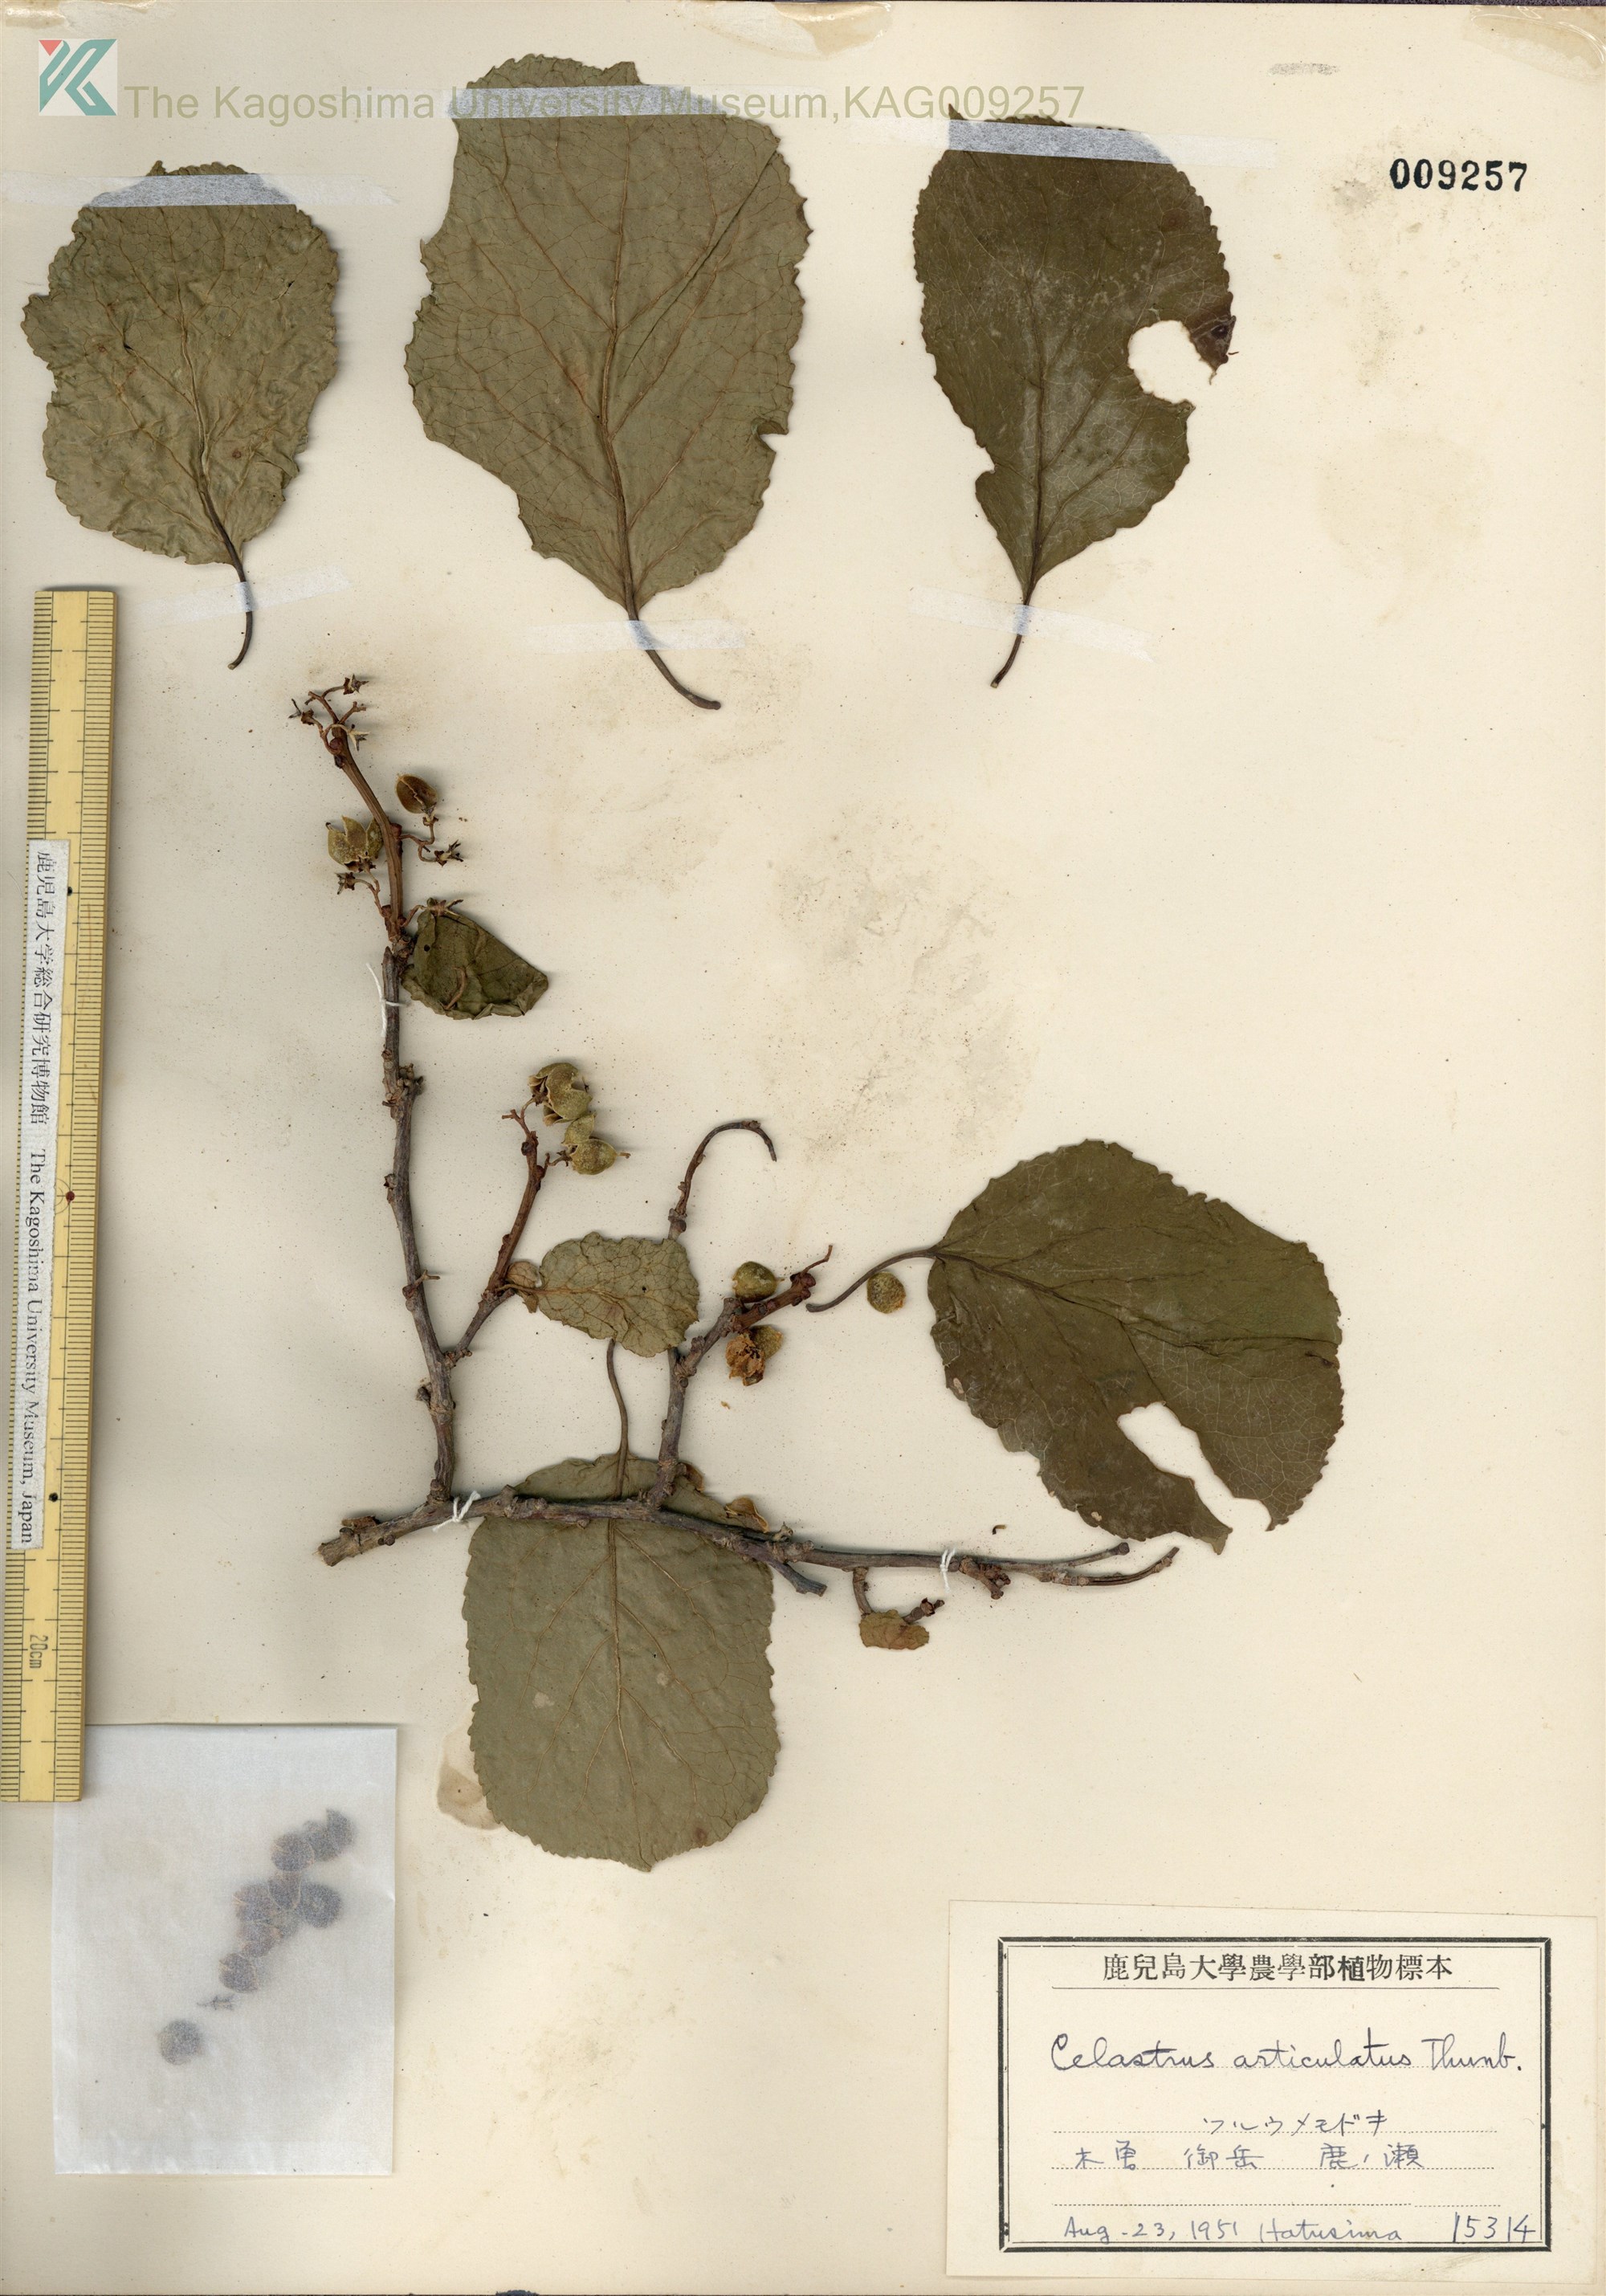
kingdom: Plantae
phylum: Tracheophyta
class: Magnoliopsida
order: Celastrales
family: Celastraceae
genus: Celastrus
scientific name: Celastrus orbiculatus
